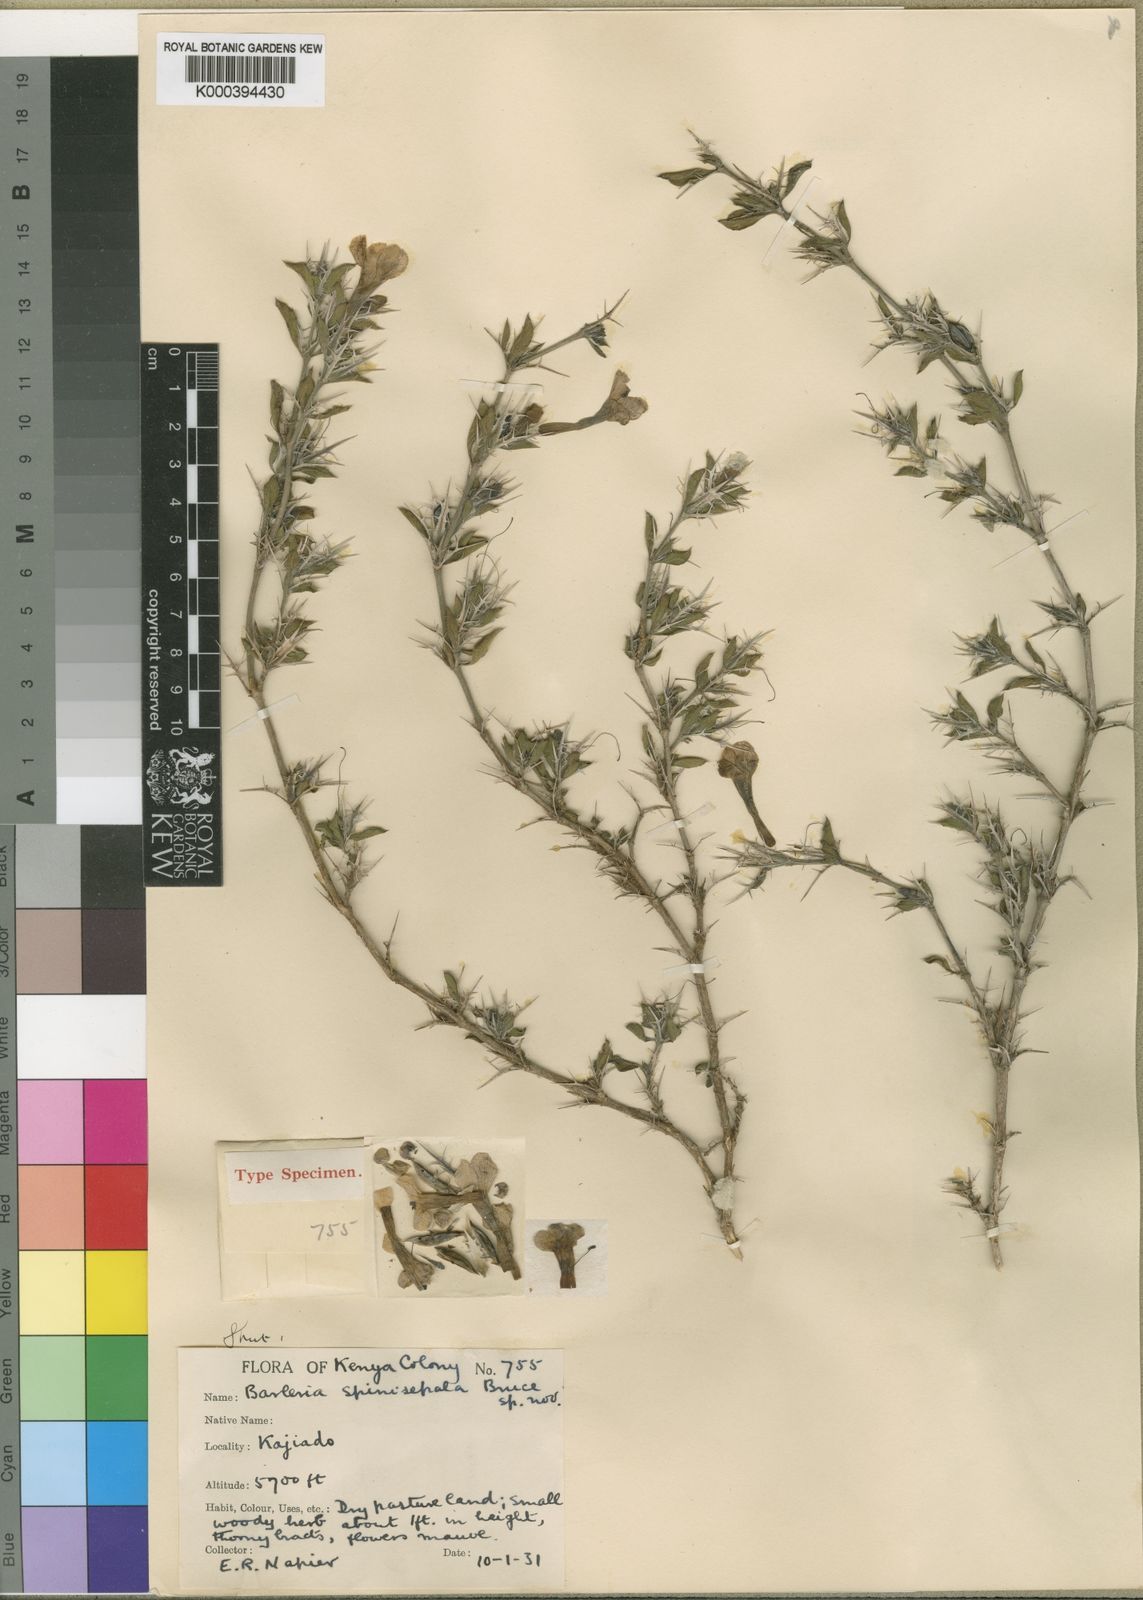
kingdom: Plantae
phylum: Tracheophyta
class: Magnoliopsida
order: Lamiales
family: Acanthaceae
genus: Barleria
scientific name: Barleria delamerei
